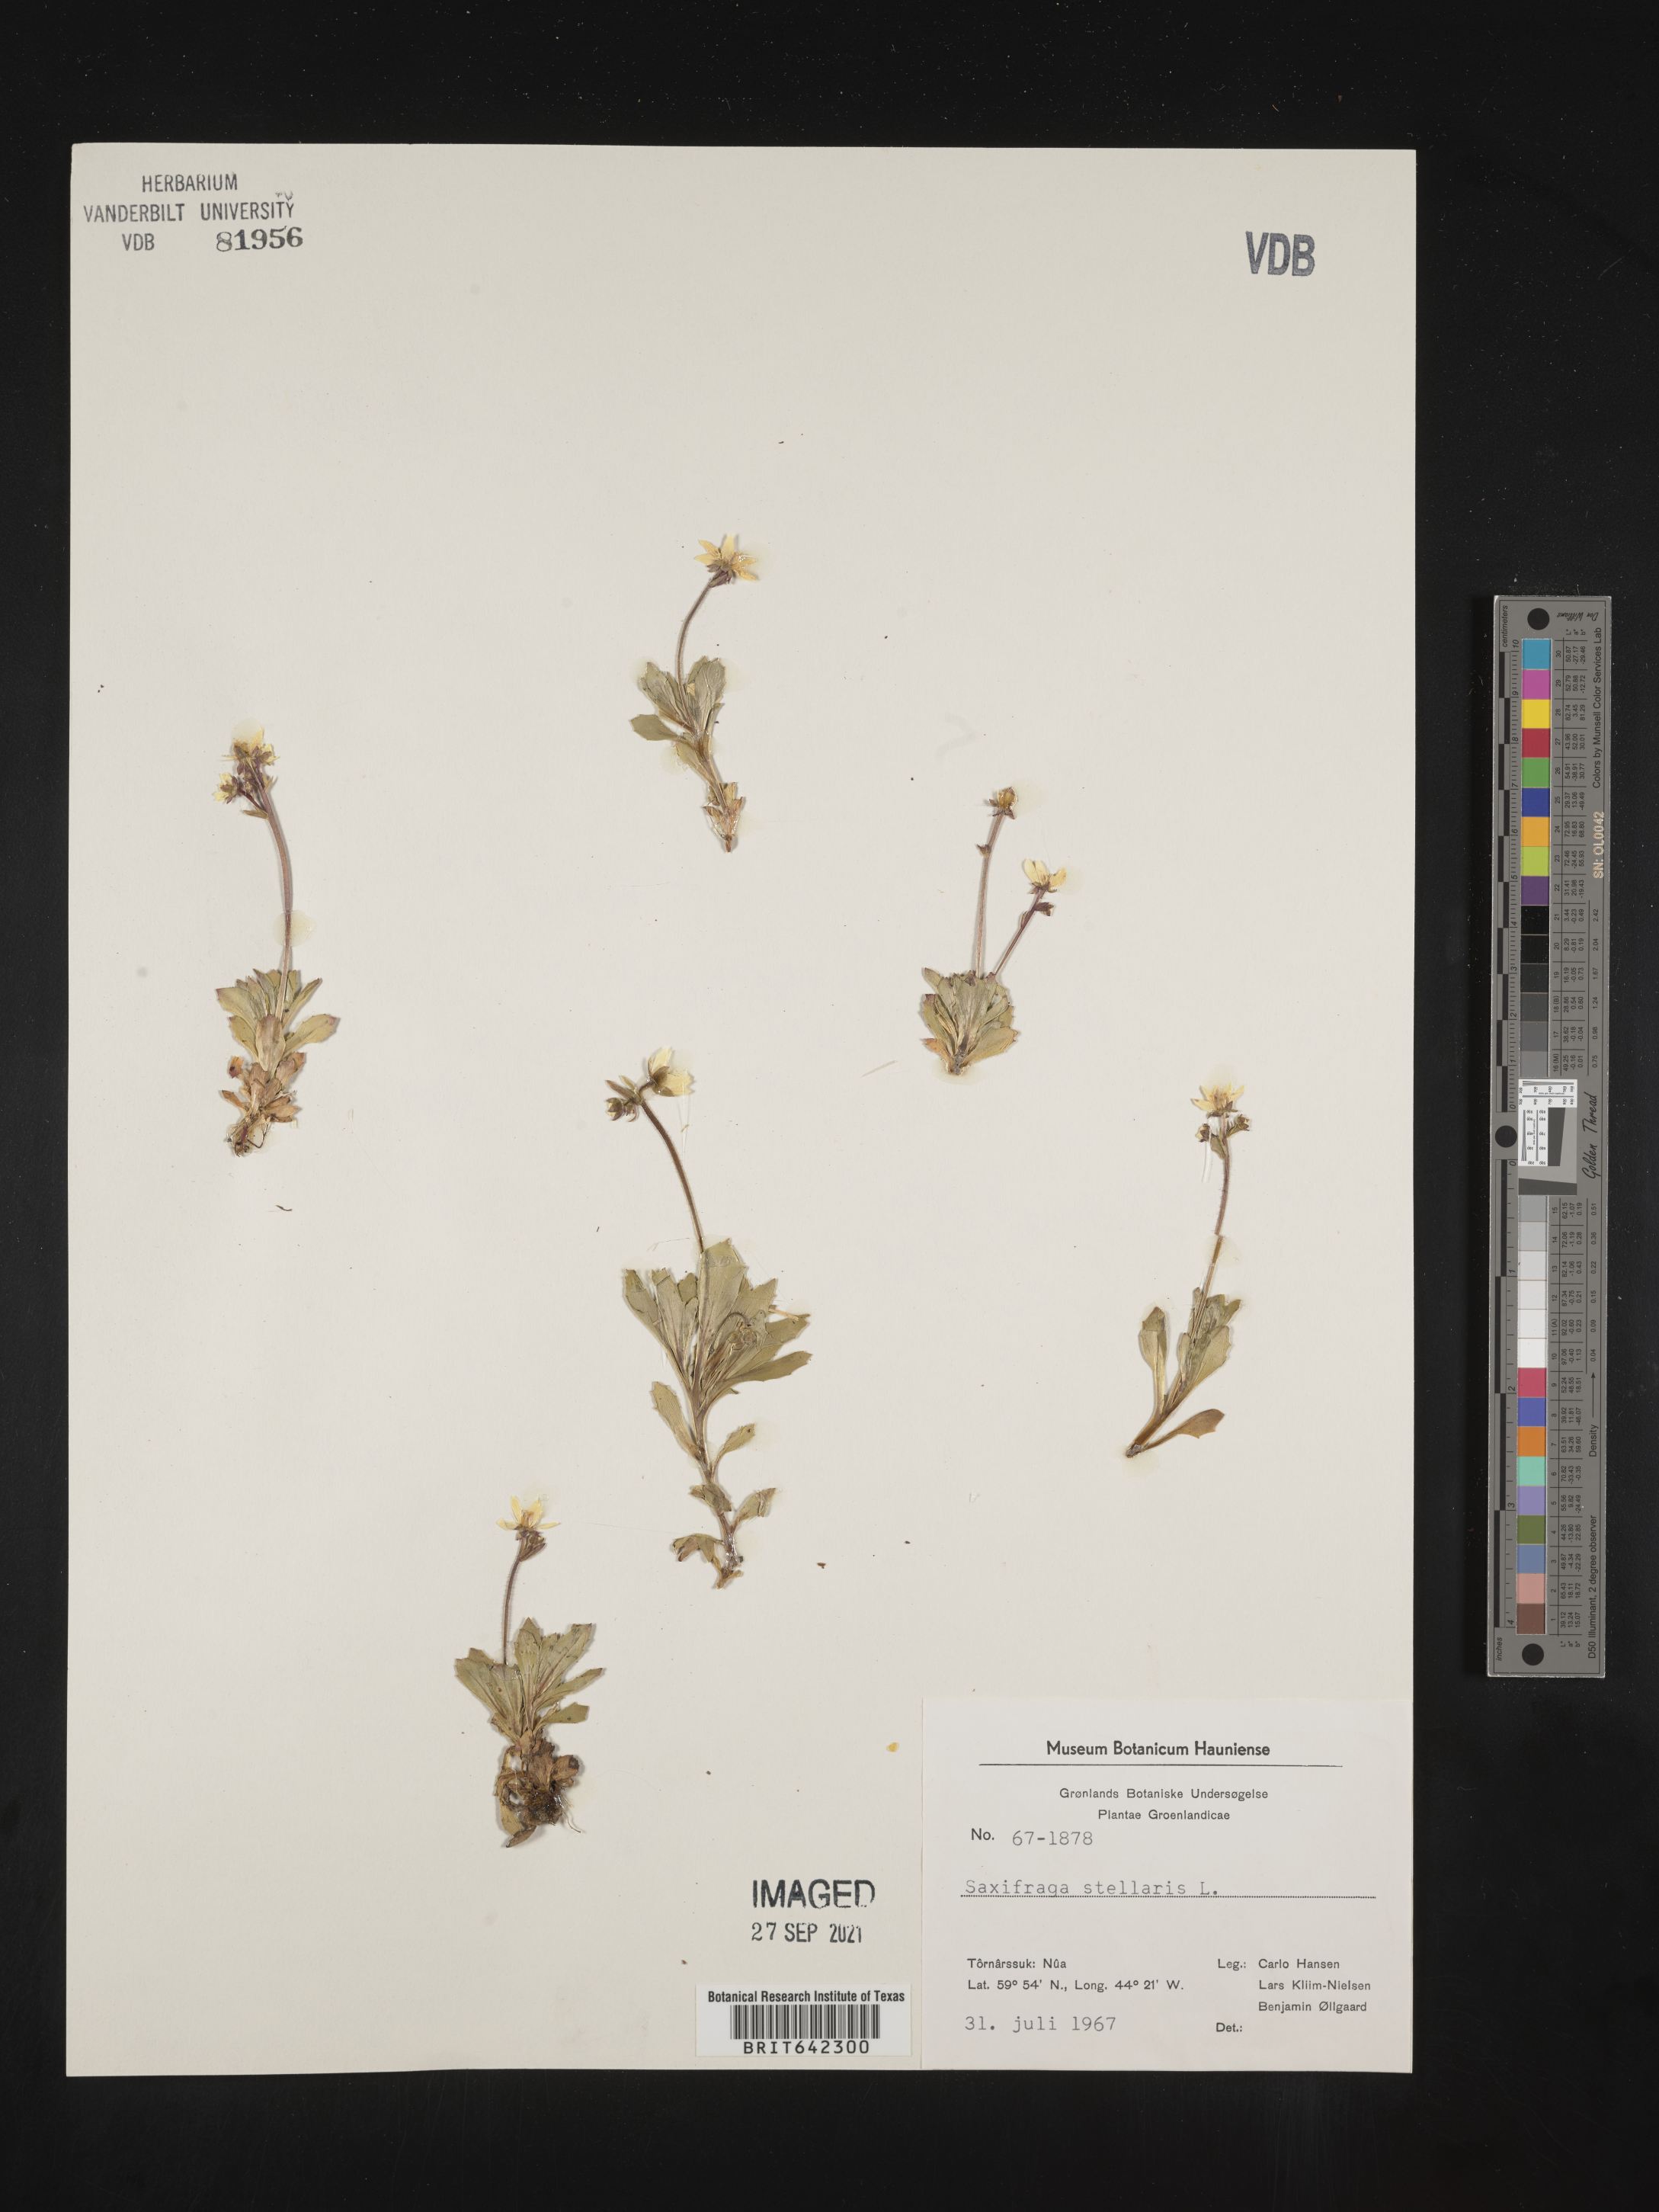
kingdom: Plantae
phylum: Tracheophyta
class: Magnoliopsida
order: Saxifragales
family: Saxifragaceae
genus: Saxifraga
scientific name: Saxifraga
